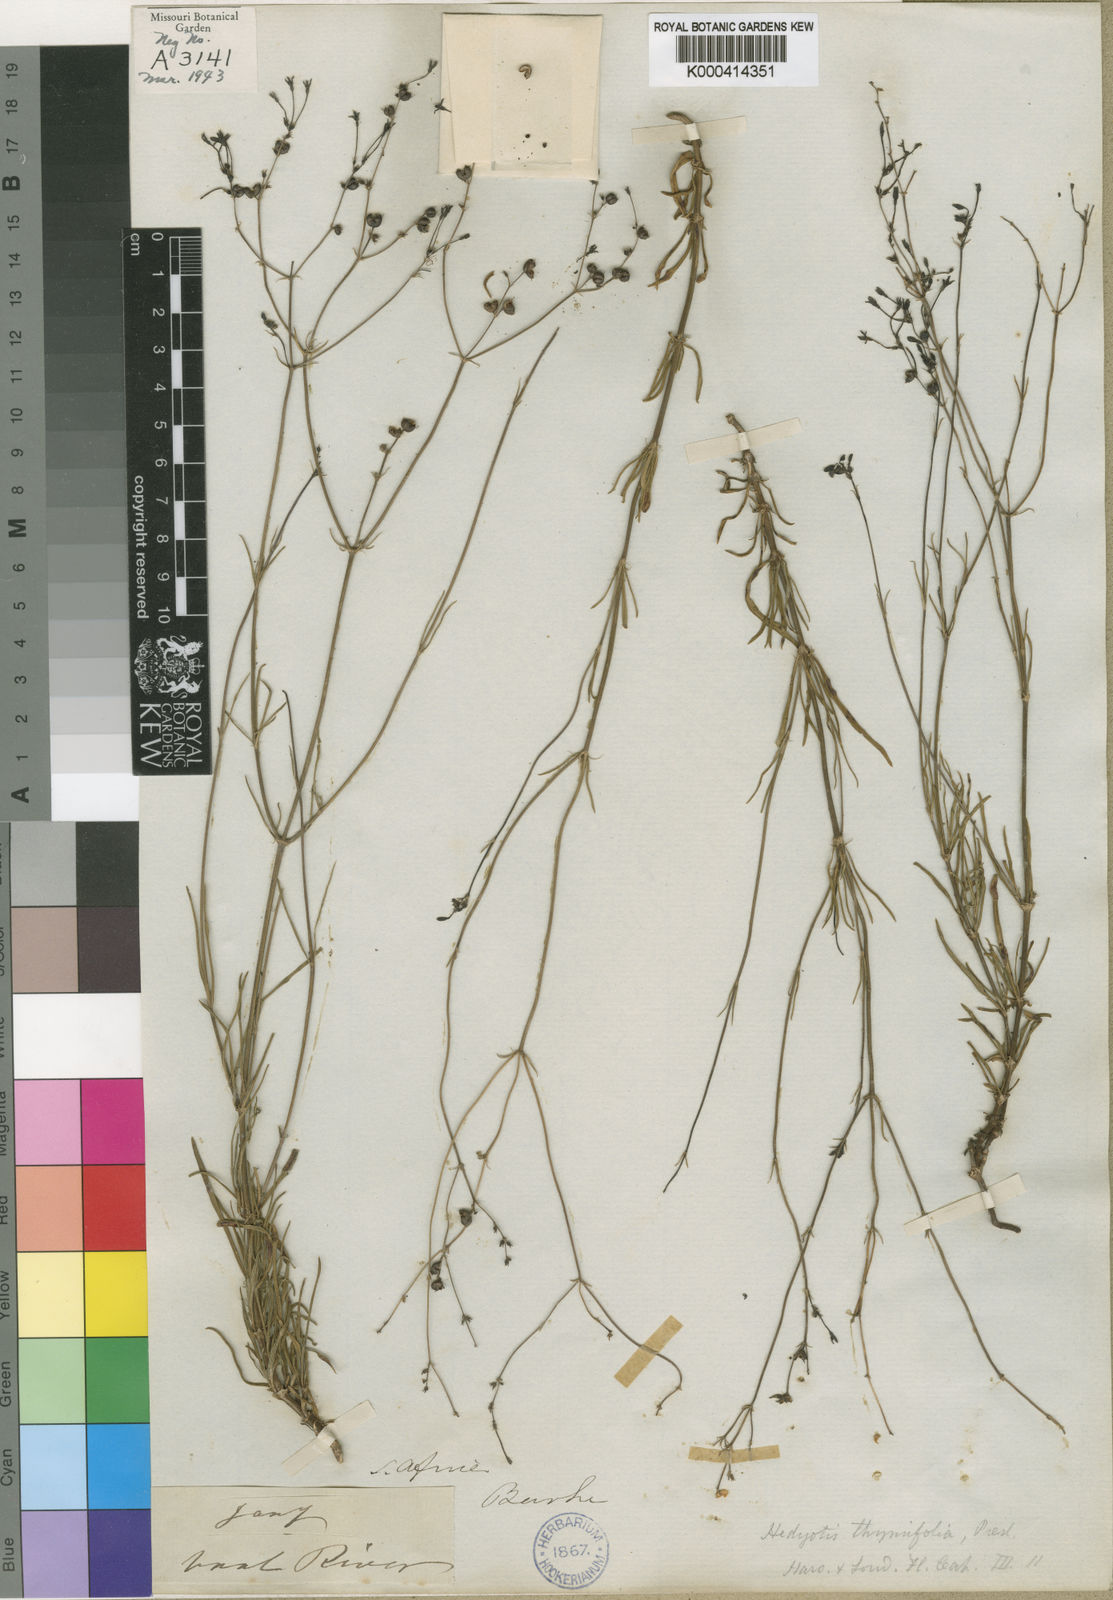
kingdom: Plantae
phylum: Tracheophyta
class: Magnoliopsida
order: Gentianales
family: Rubiaceae
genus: Kohautia
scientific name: Kohautia caespitosa
